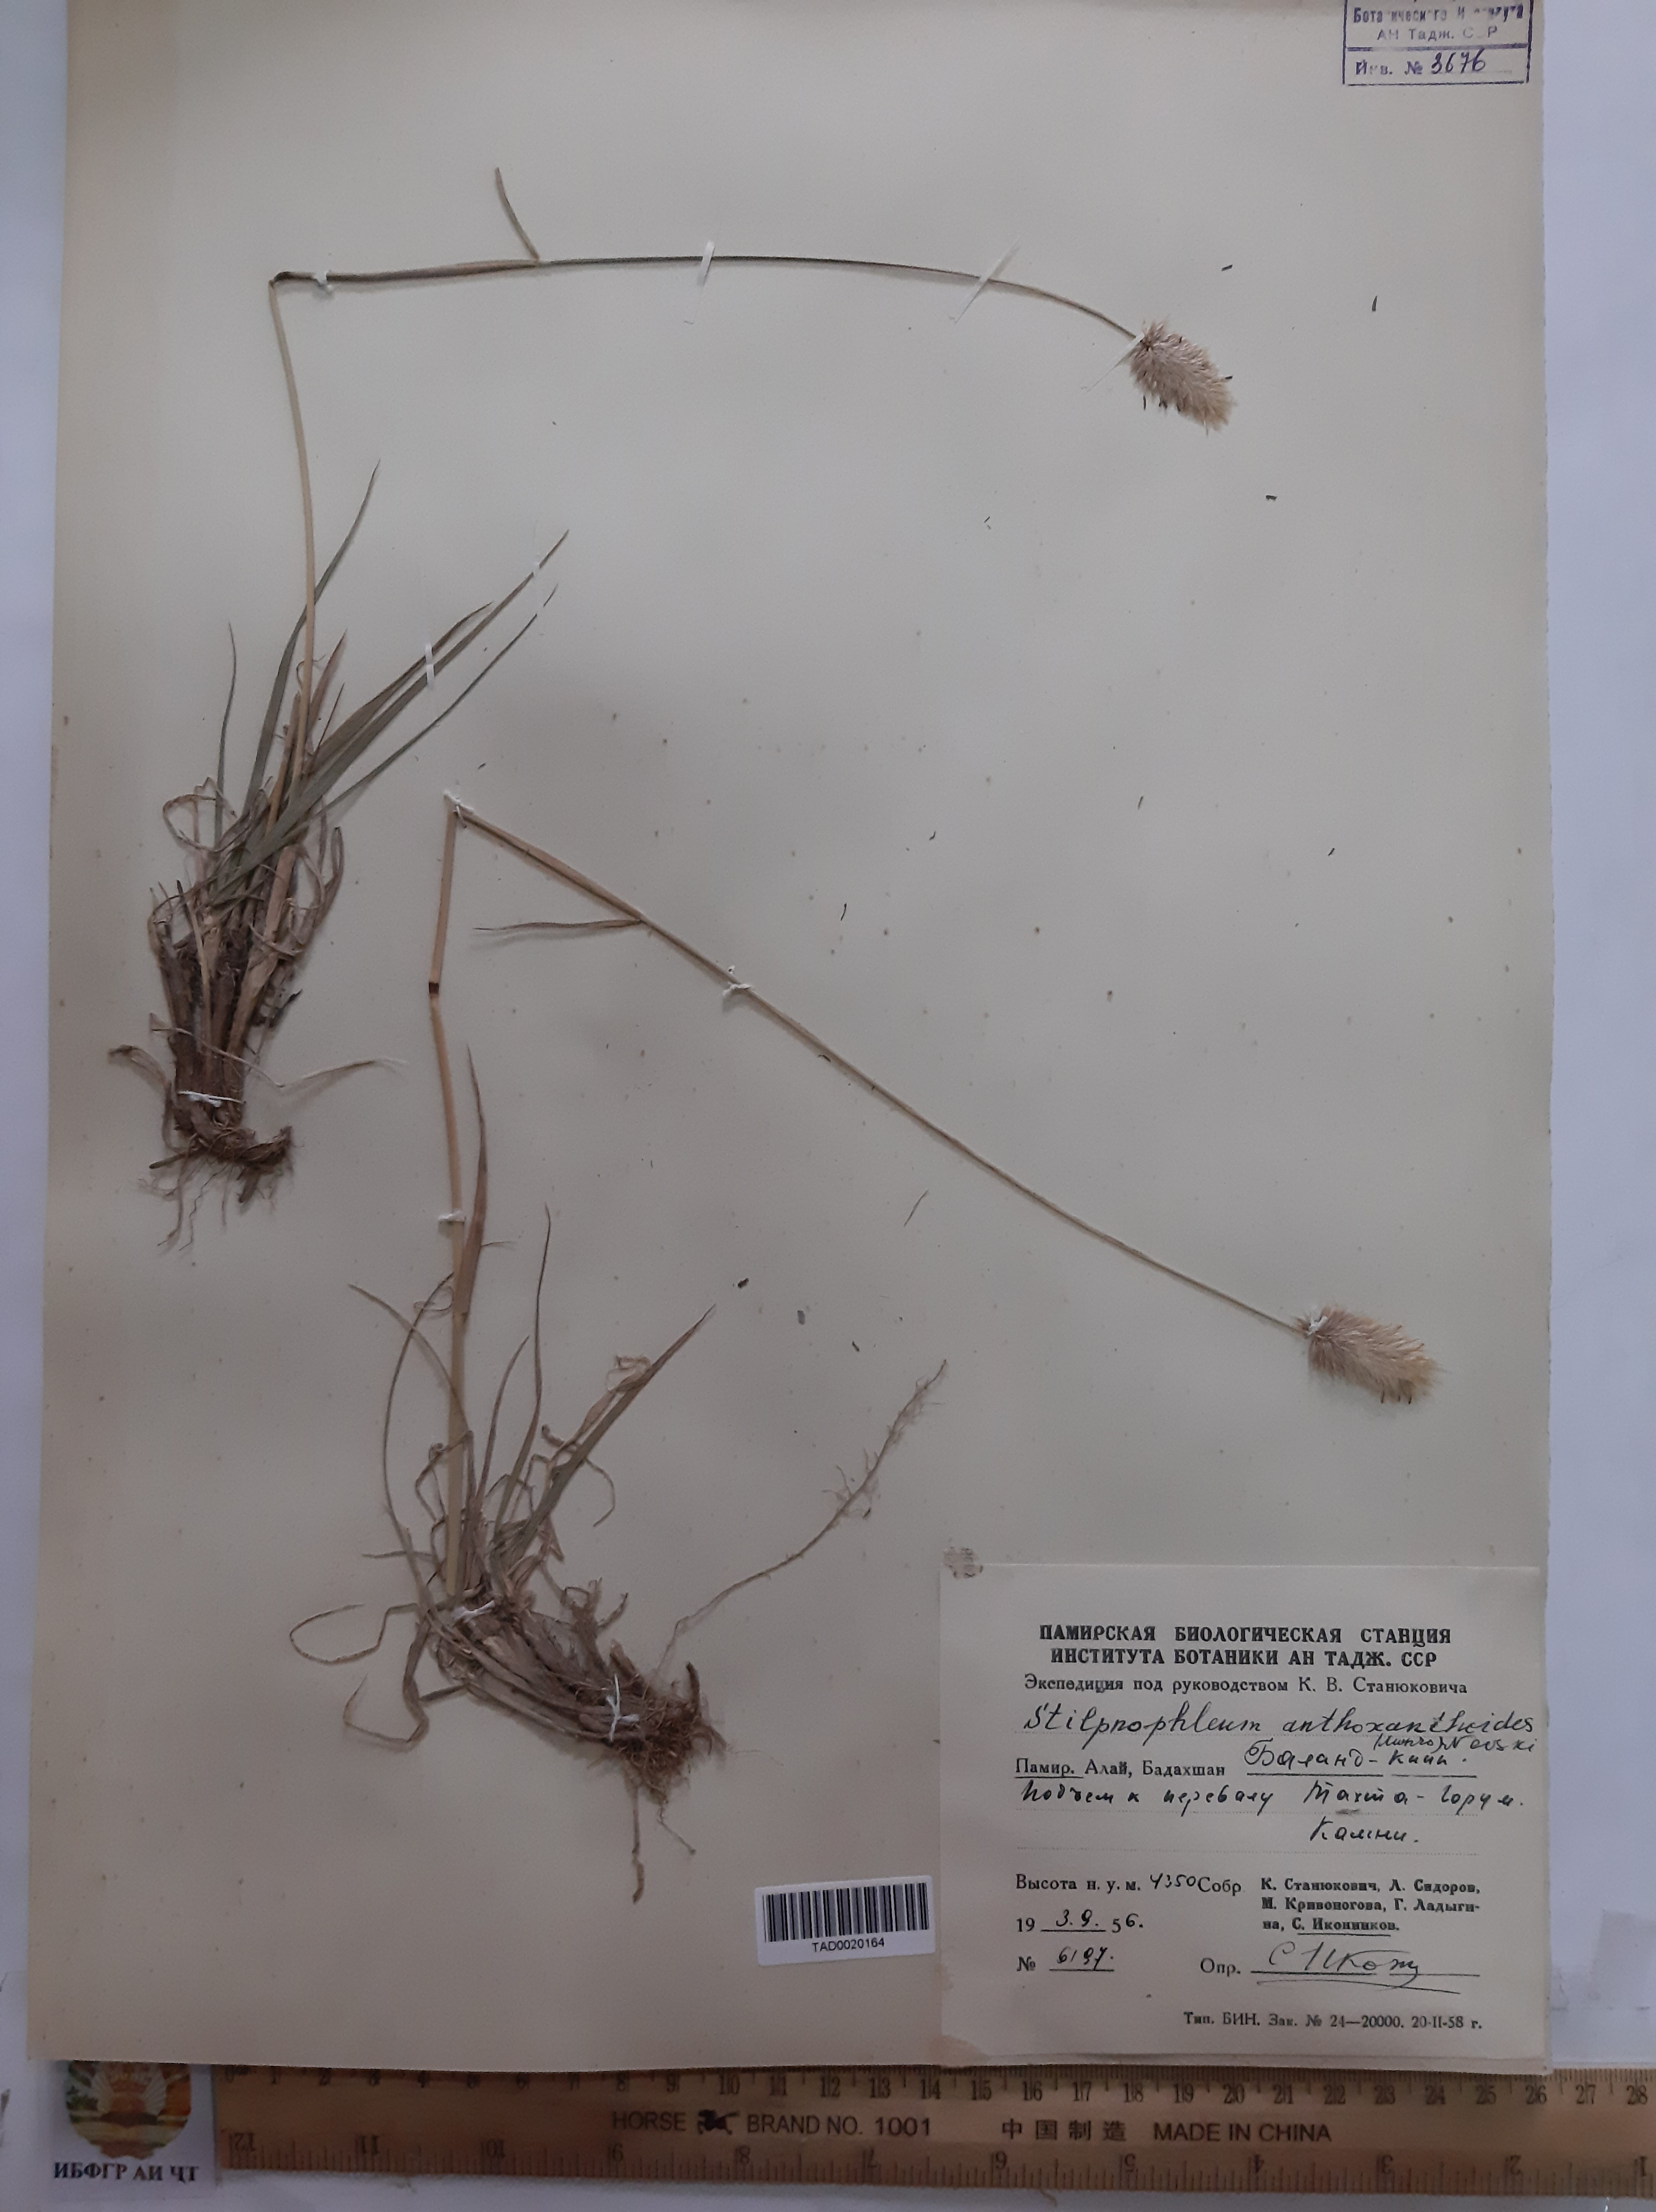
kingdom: Plantae
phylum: Tracheophyta
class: Liliopsida
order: Poales
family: Poaceae
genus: Calamagrostis
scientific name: Calamagrostis anthoxanthoides
